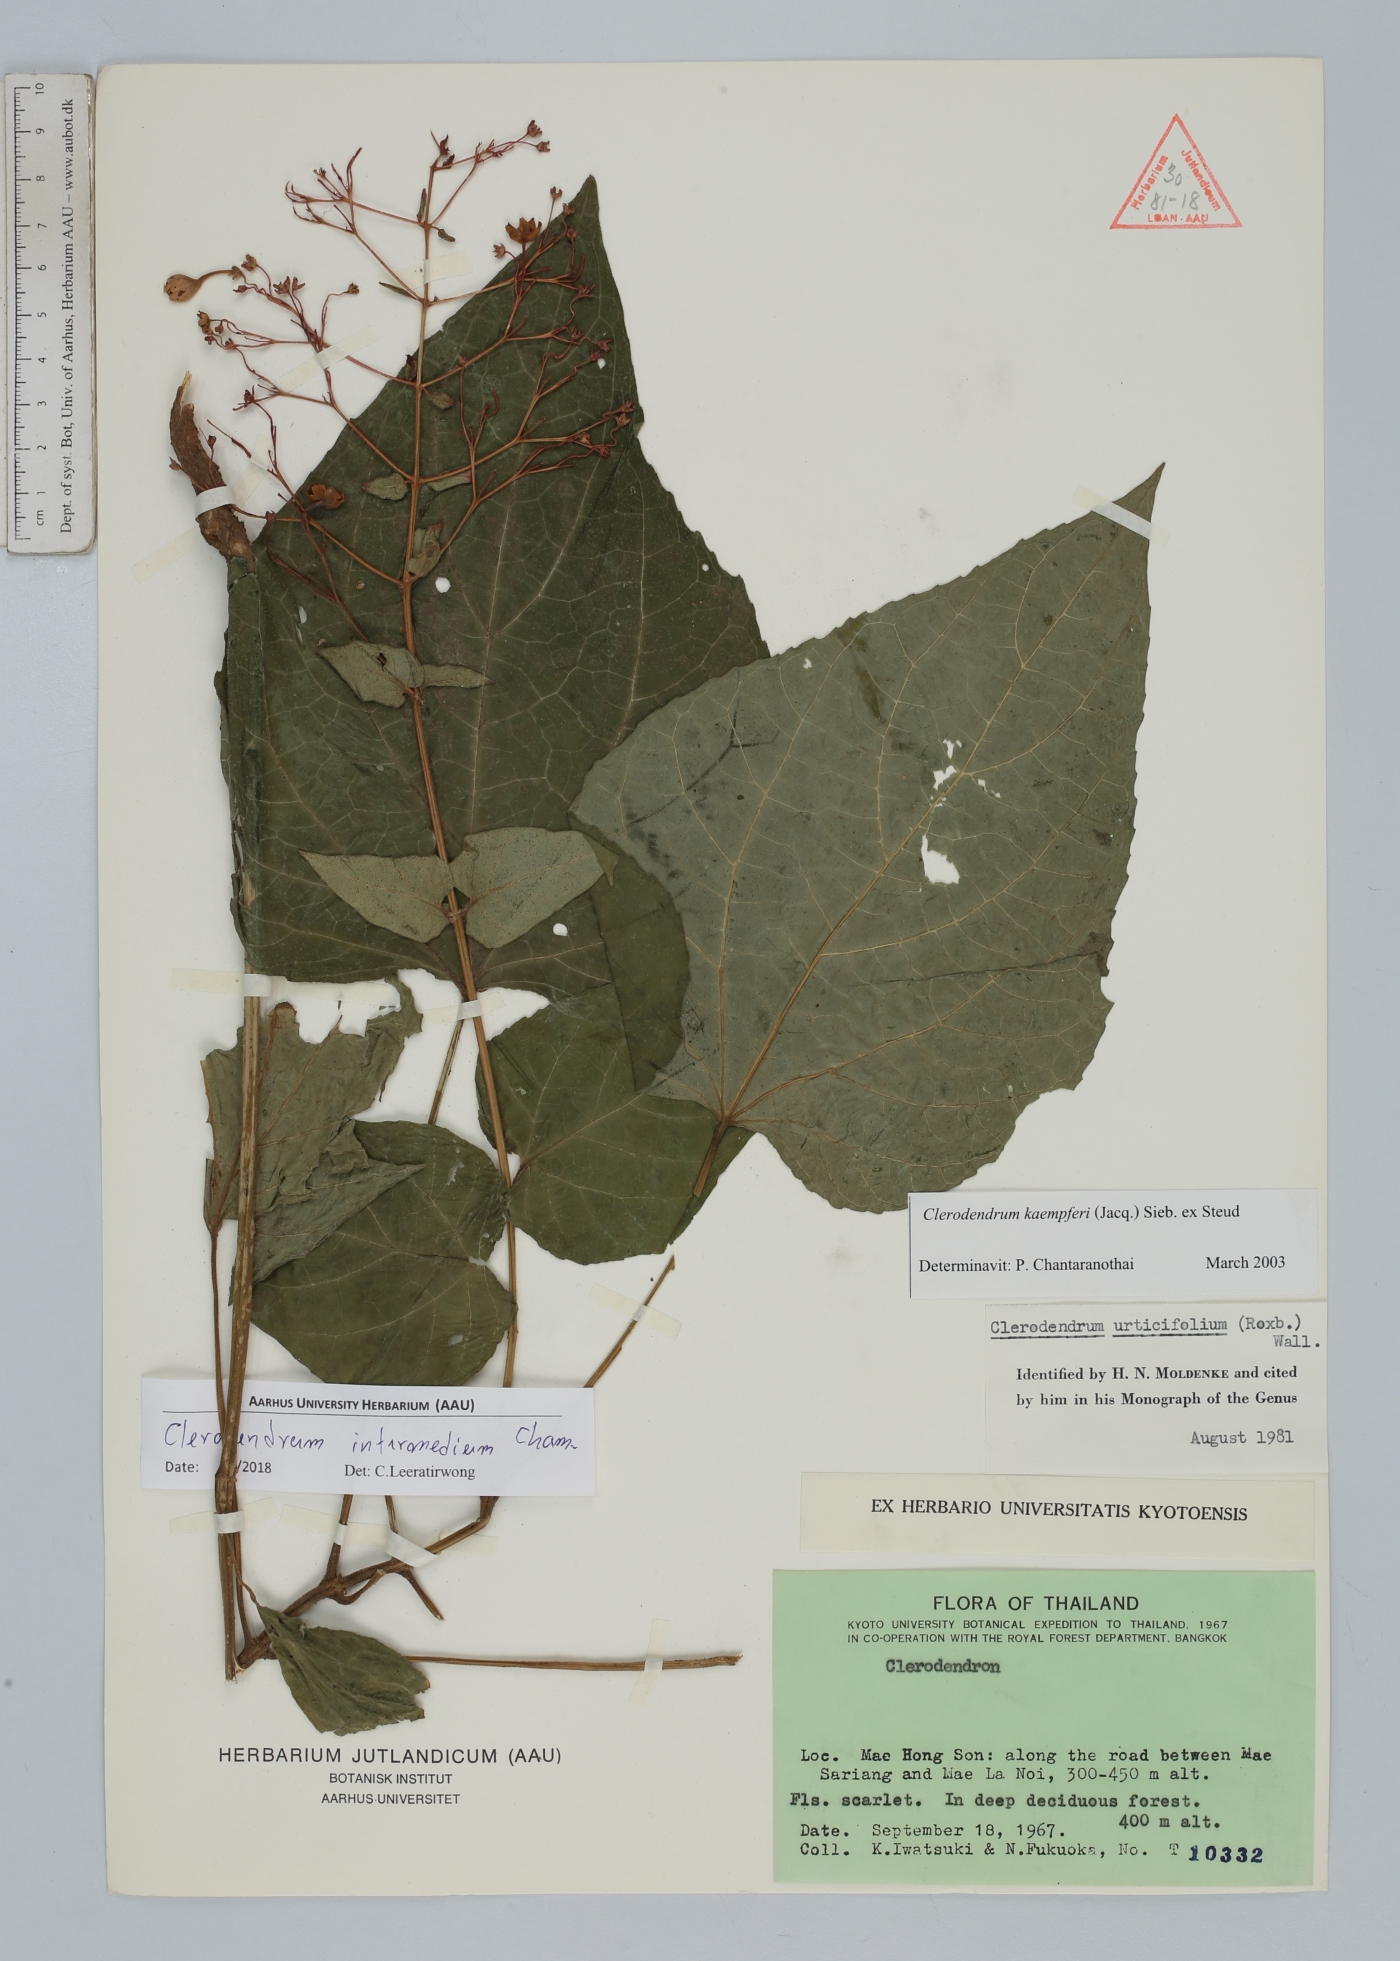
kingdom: Plantae
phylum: Tracheophyta
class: Magnoliopsida
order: Lamiales
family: Lamiaceae
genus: Clerodendrum
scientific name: Clerodendrum intermedium
